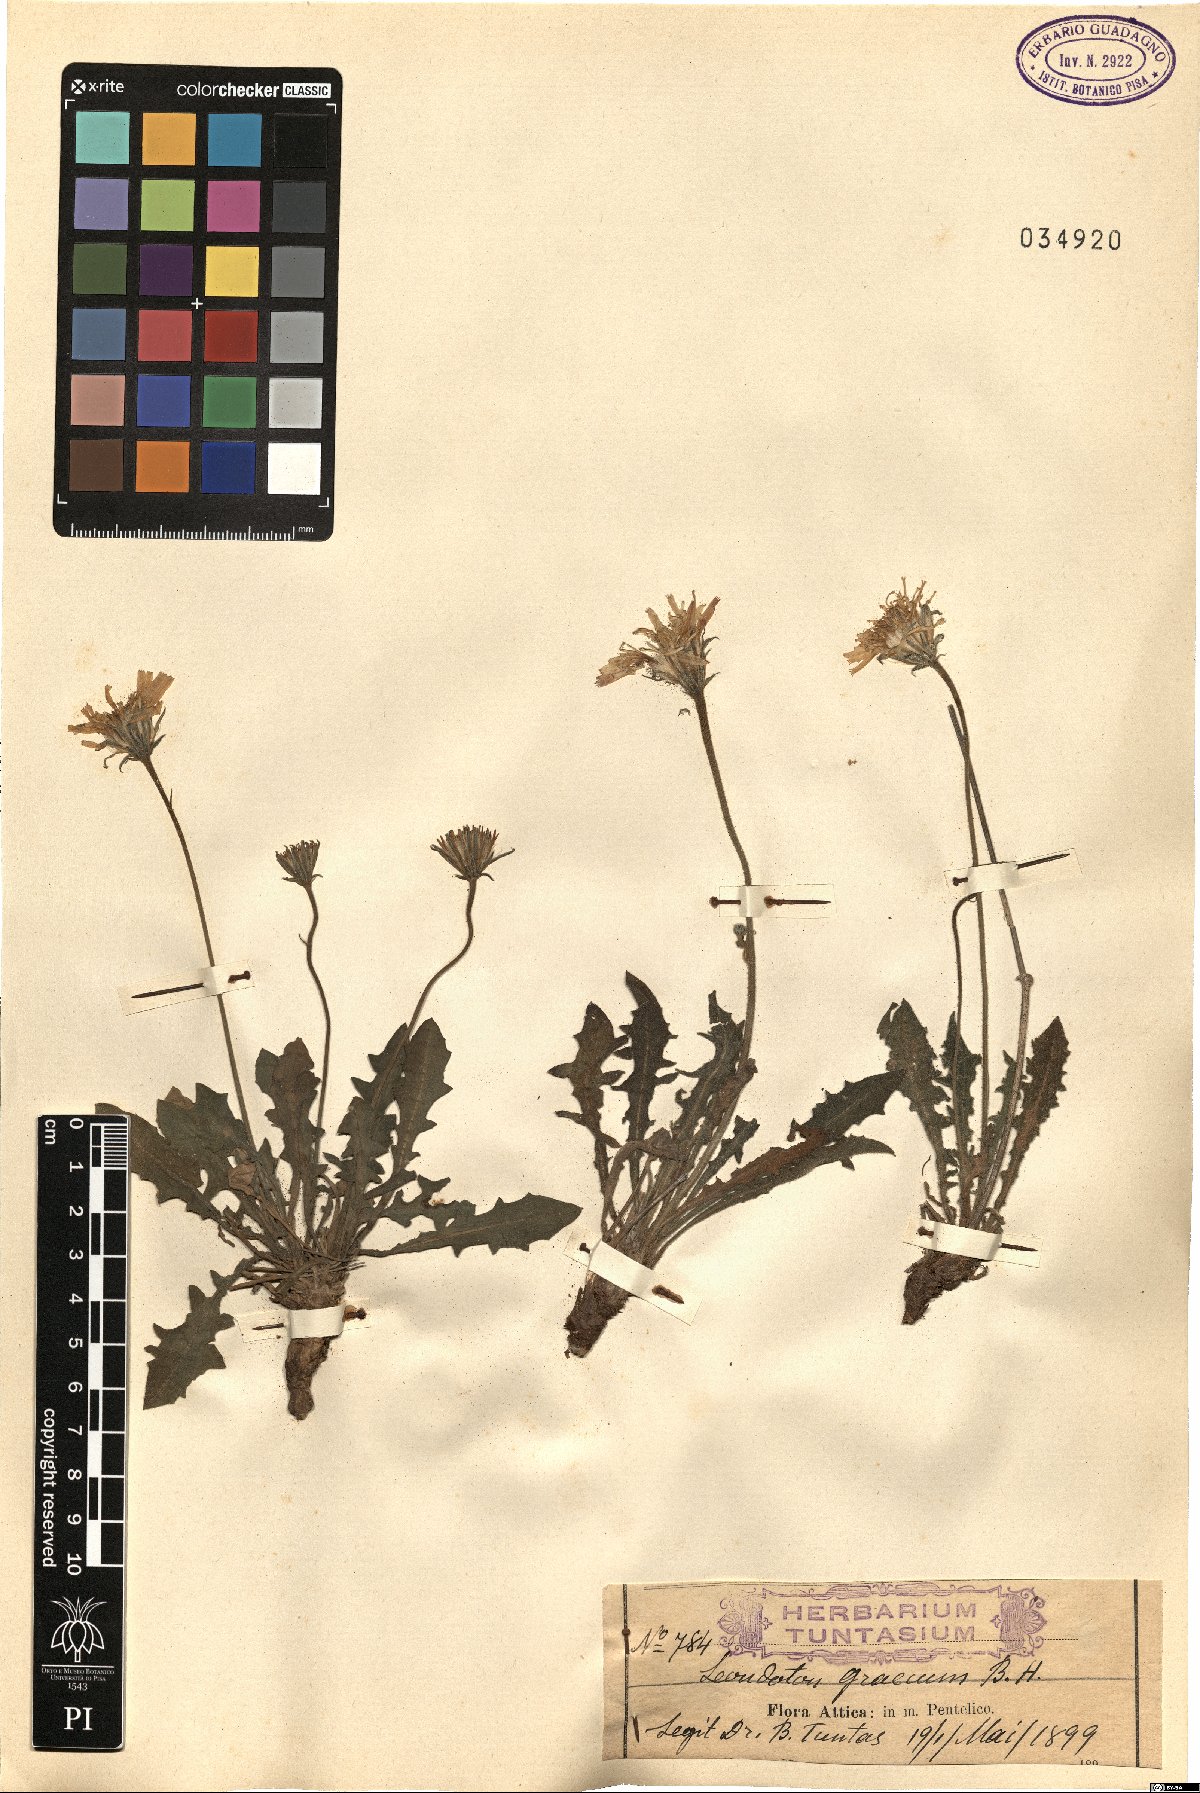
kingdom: Plantae
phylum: Tracheophyta
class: Magnoliopsida
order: Asterales
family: Asteraceae
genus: Leontodon
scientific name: Leontodon graecus
